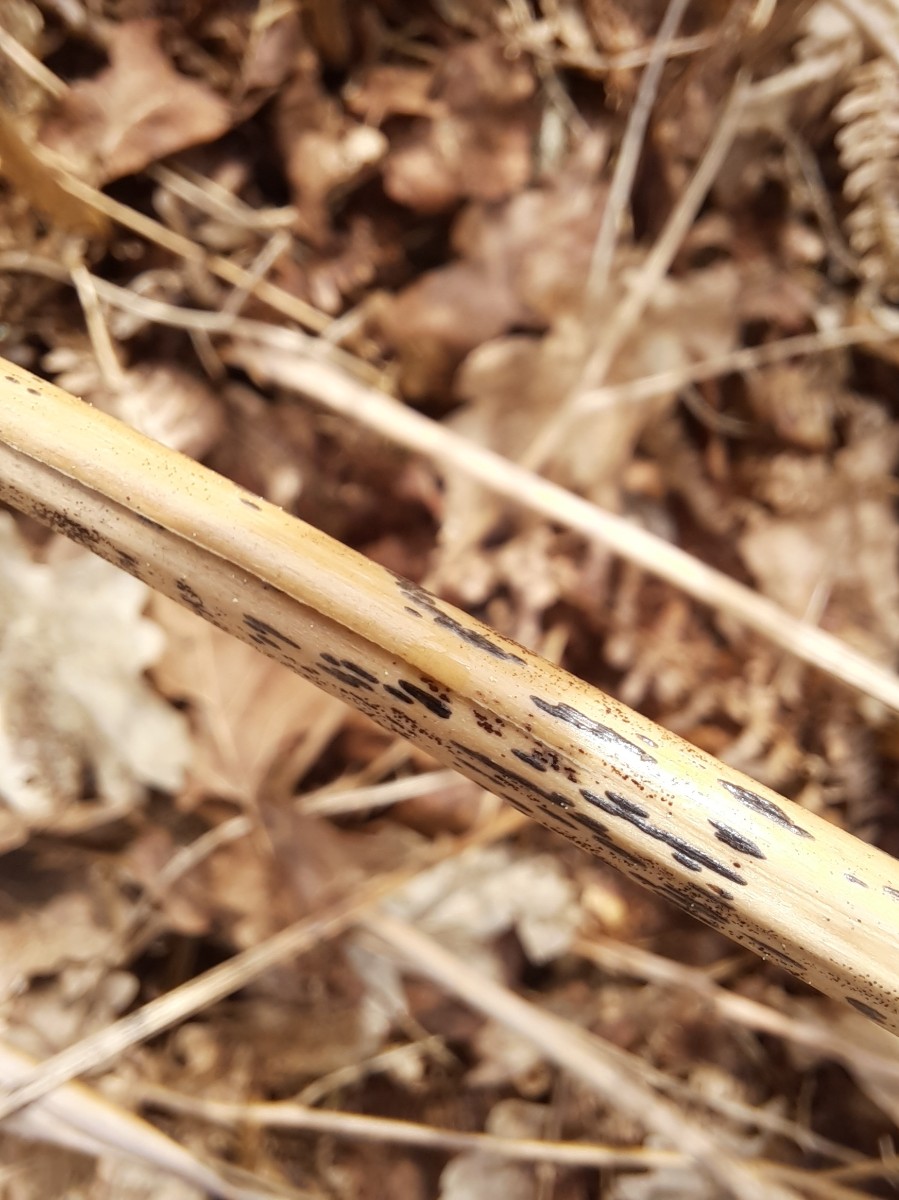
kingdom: Fungi
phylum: Ascomycota
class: Dothideomycetes
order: Pleosporales
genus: Rhopographus
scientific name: Rhopographus filicinus
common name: Bracken map
